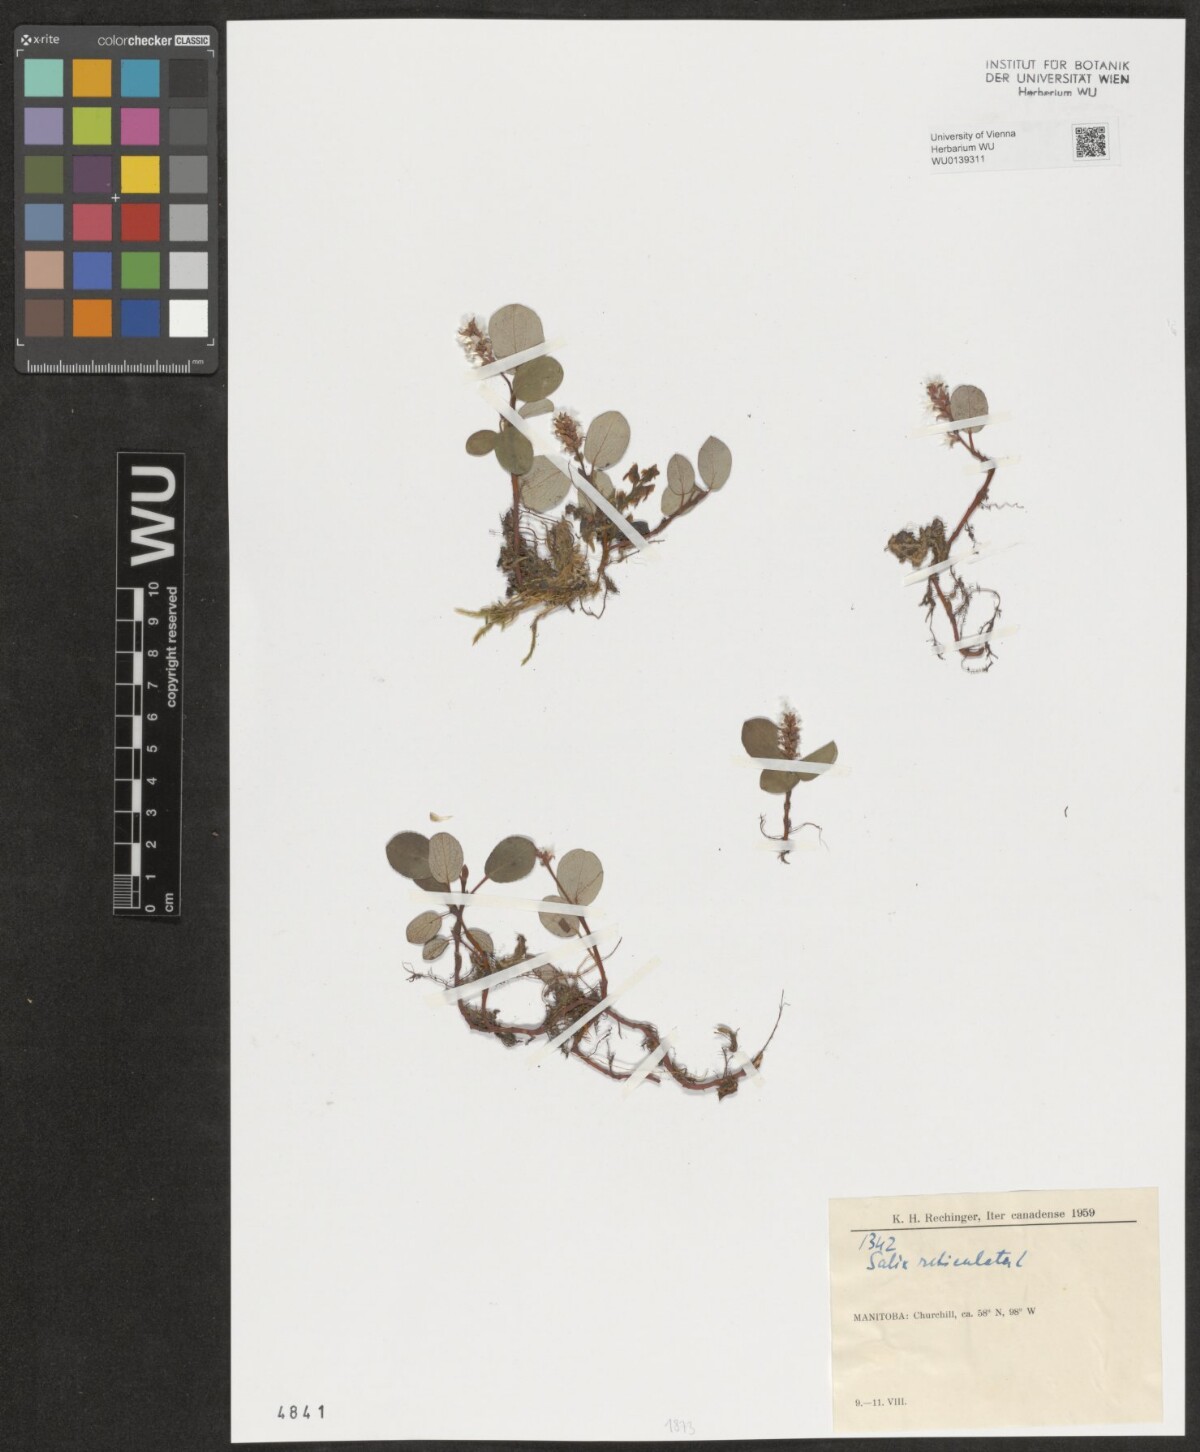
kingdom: Plantae
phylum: Tracheophyta
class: Magnoliopsida
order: Malpighiales
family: Salicaceae
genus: Salix
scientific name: Salix reticulata
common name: Net-leaved willow
